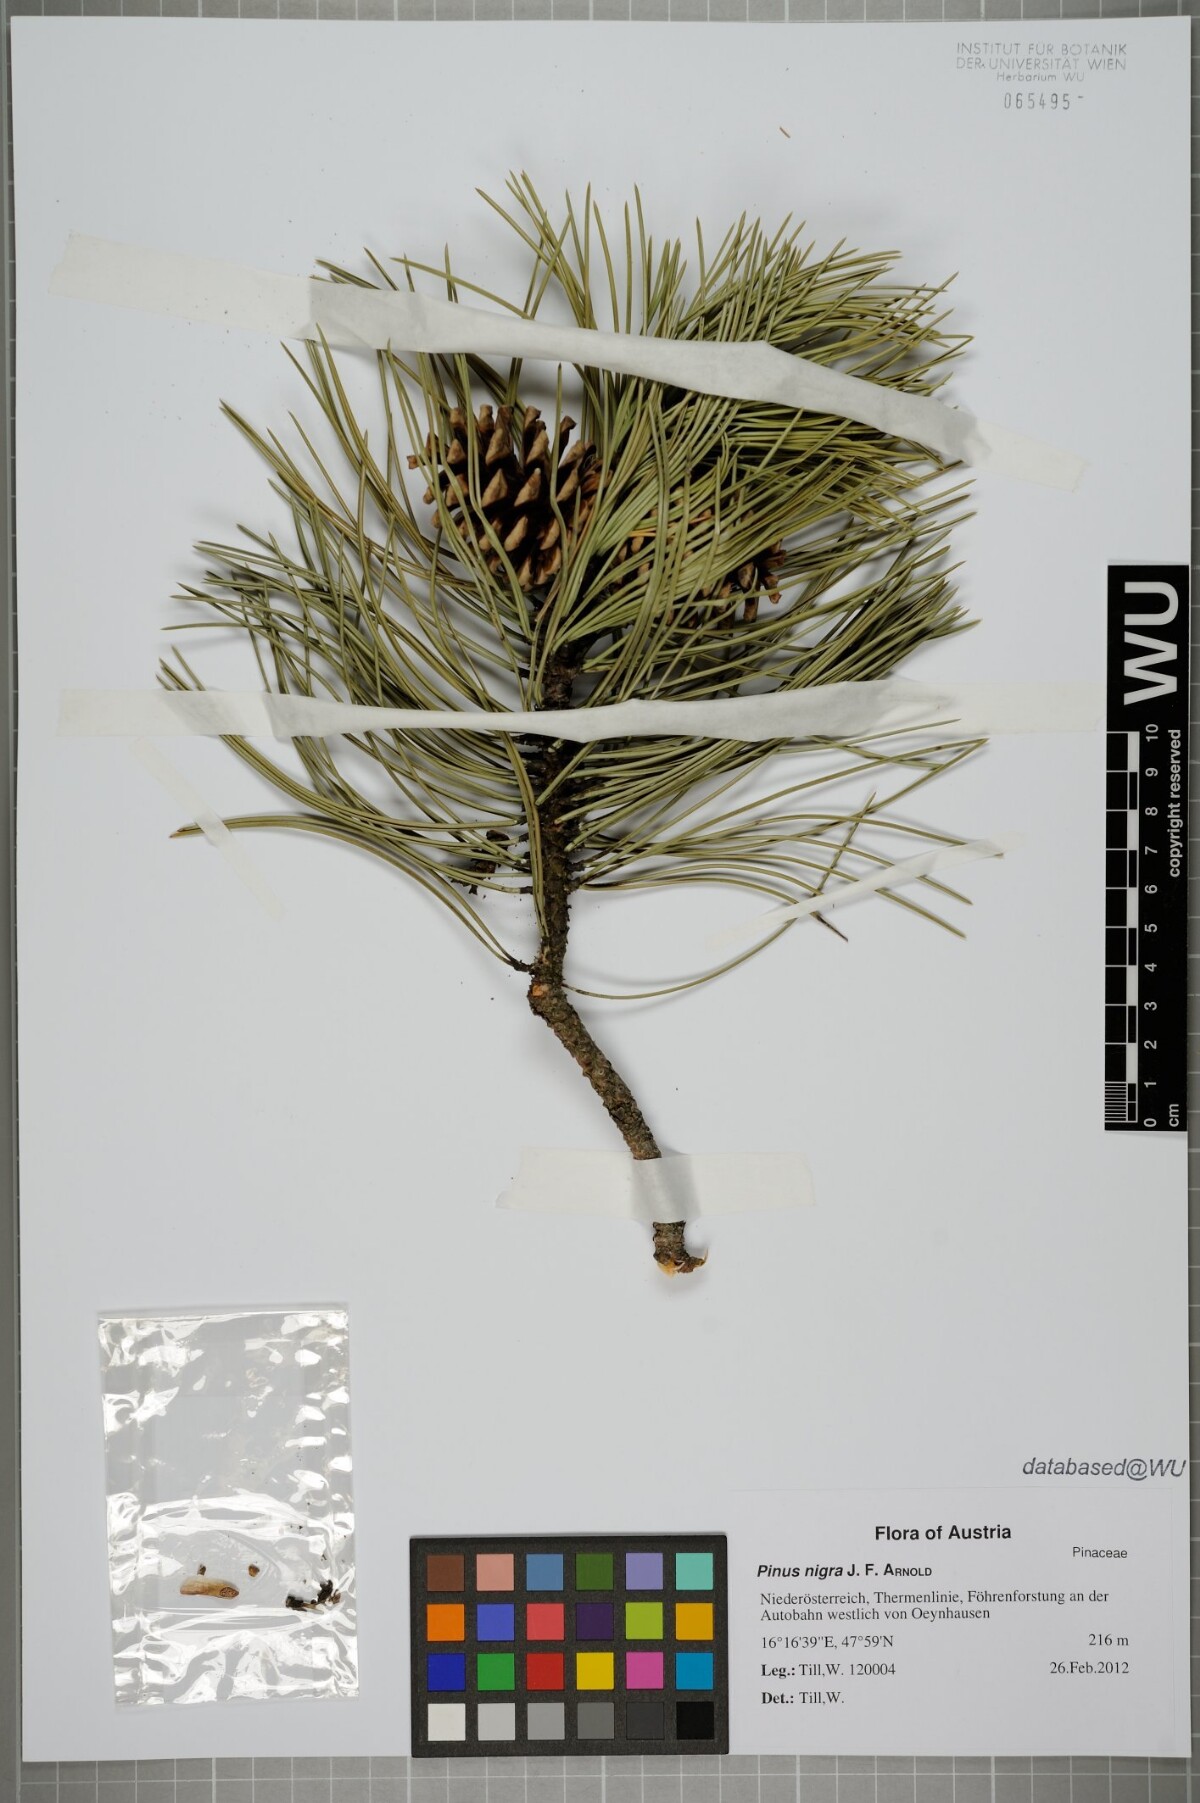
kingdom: Plantae
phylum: Tracheophyta
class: Pinopsida
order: Pinales
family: Pinaceae
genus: Pinus
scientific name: Pinus nigra
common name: Austrian pine
